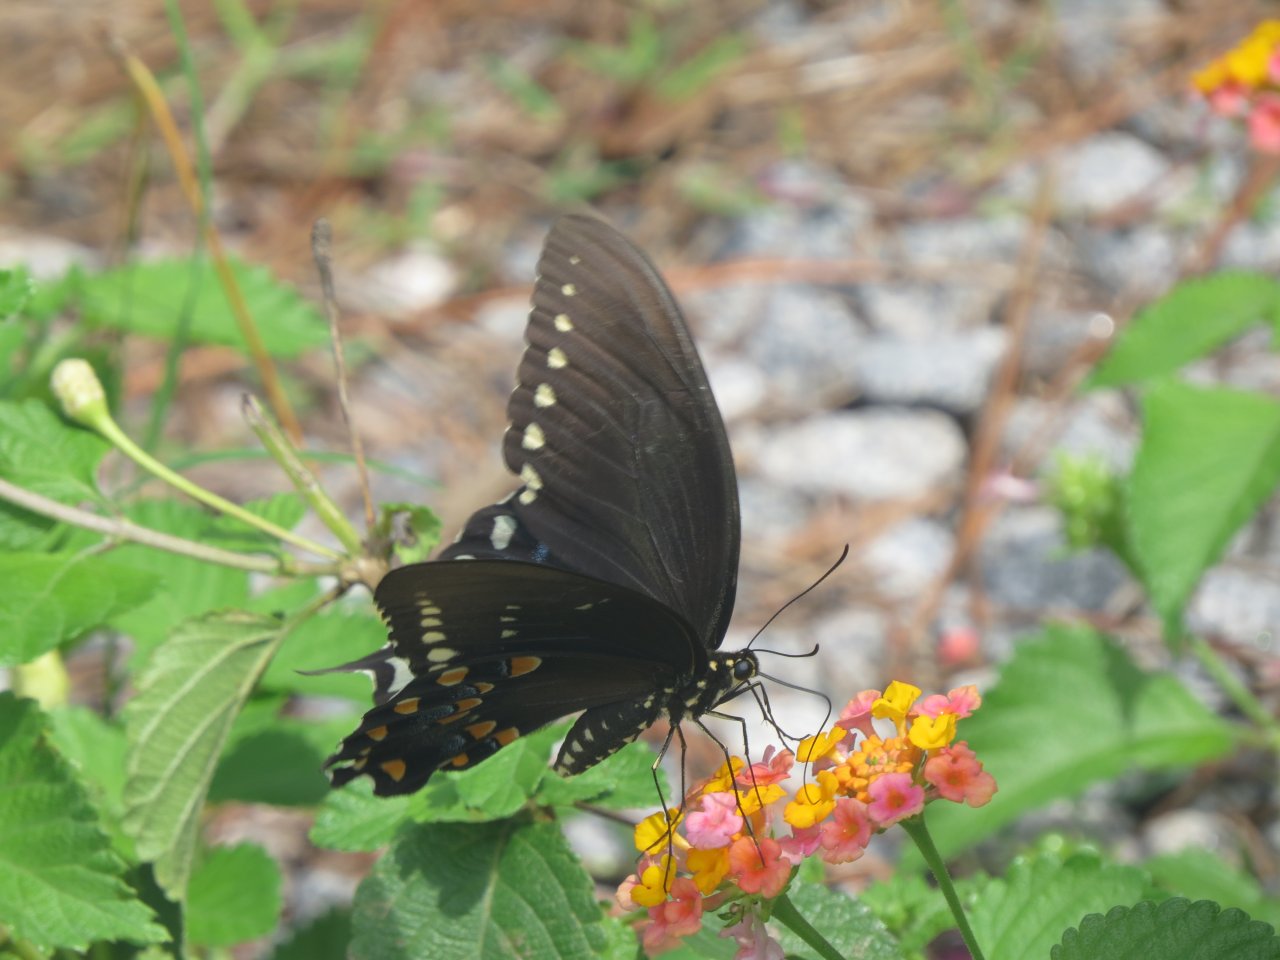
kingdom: Animalia
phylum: Arthropoda
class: Insecta
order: Lepidoptera
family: Papilionidae
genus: Pterourus
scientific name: Pterourus troilus
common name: Spicebush Swallowtail
